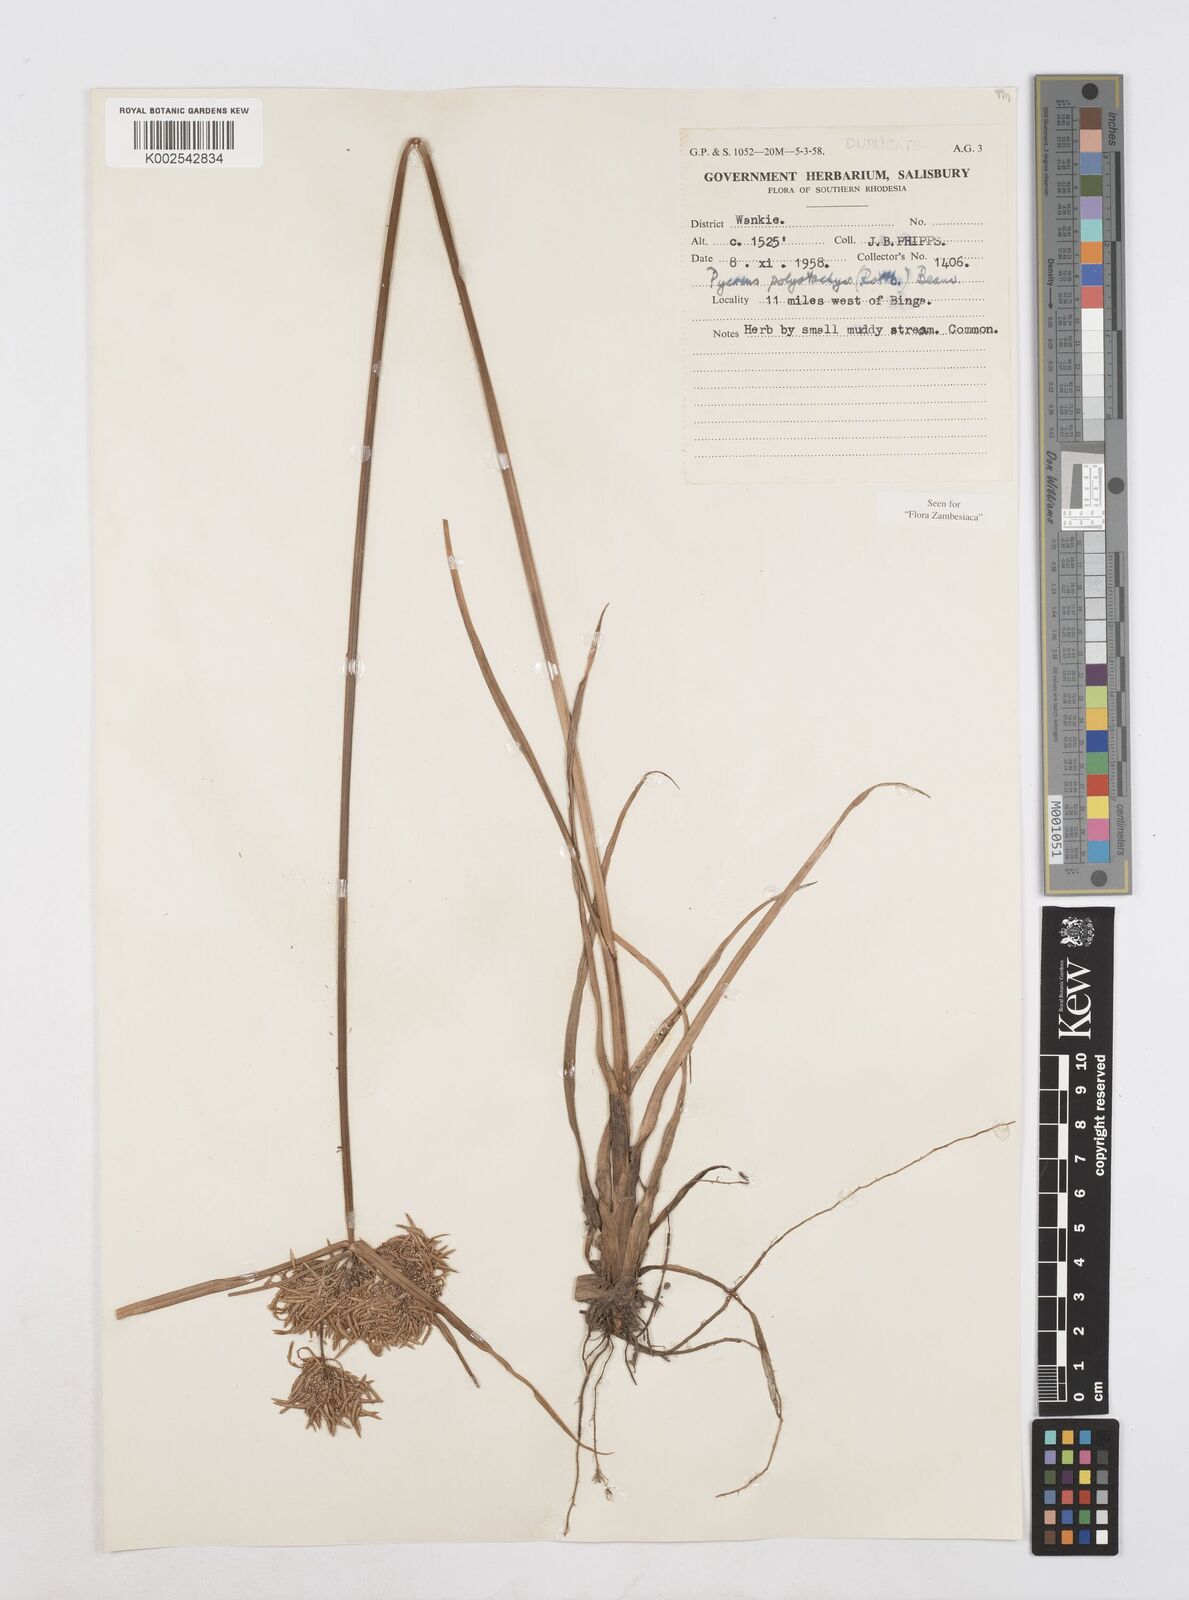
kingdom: Plantae
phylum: Tracheophyta
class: Liliopsida
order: Poales
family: Cyperaceae
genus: Cyperus
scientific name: Cyperus polystachyos
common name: Bunchy flat sedge
